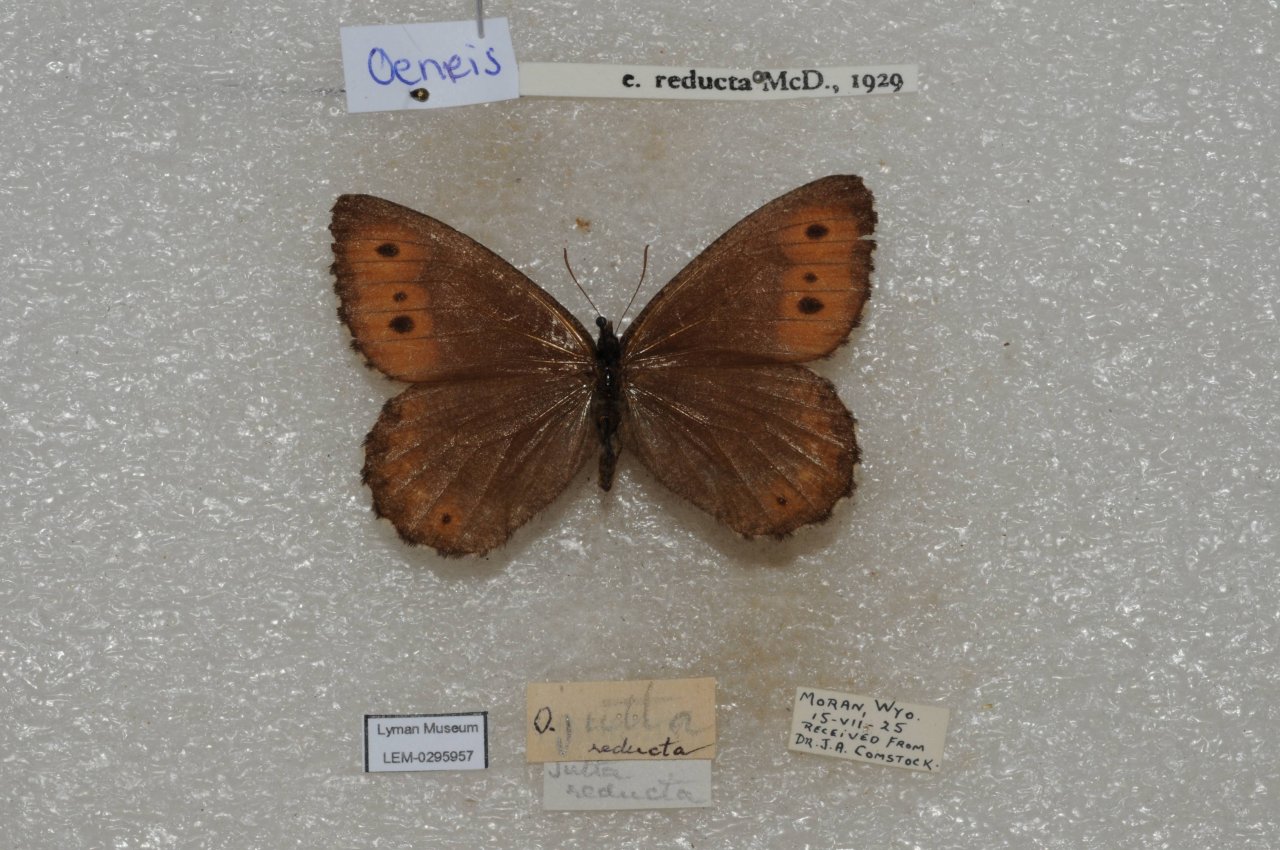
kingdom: Animalia
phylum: Arthropoda
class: Insecta
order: Lepidoptera
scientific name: Lepidoptera
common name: Butterflies
